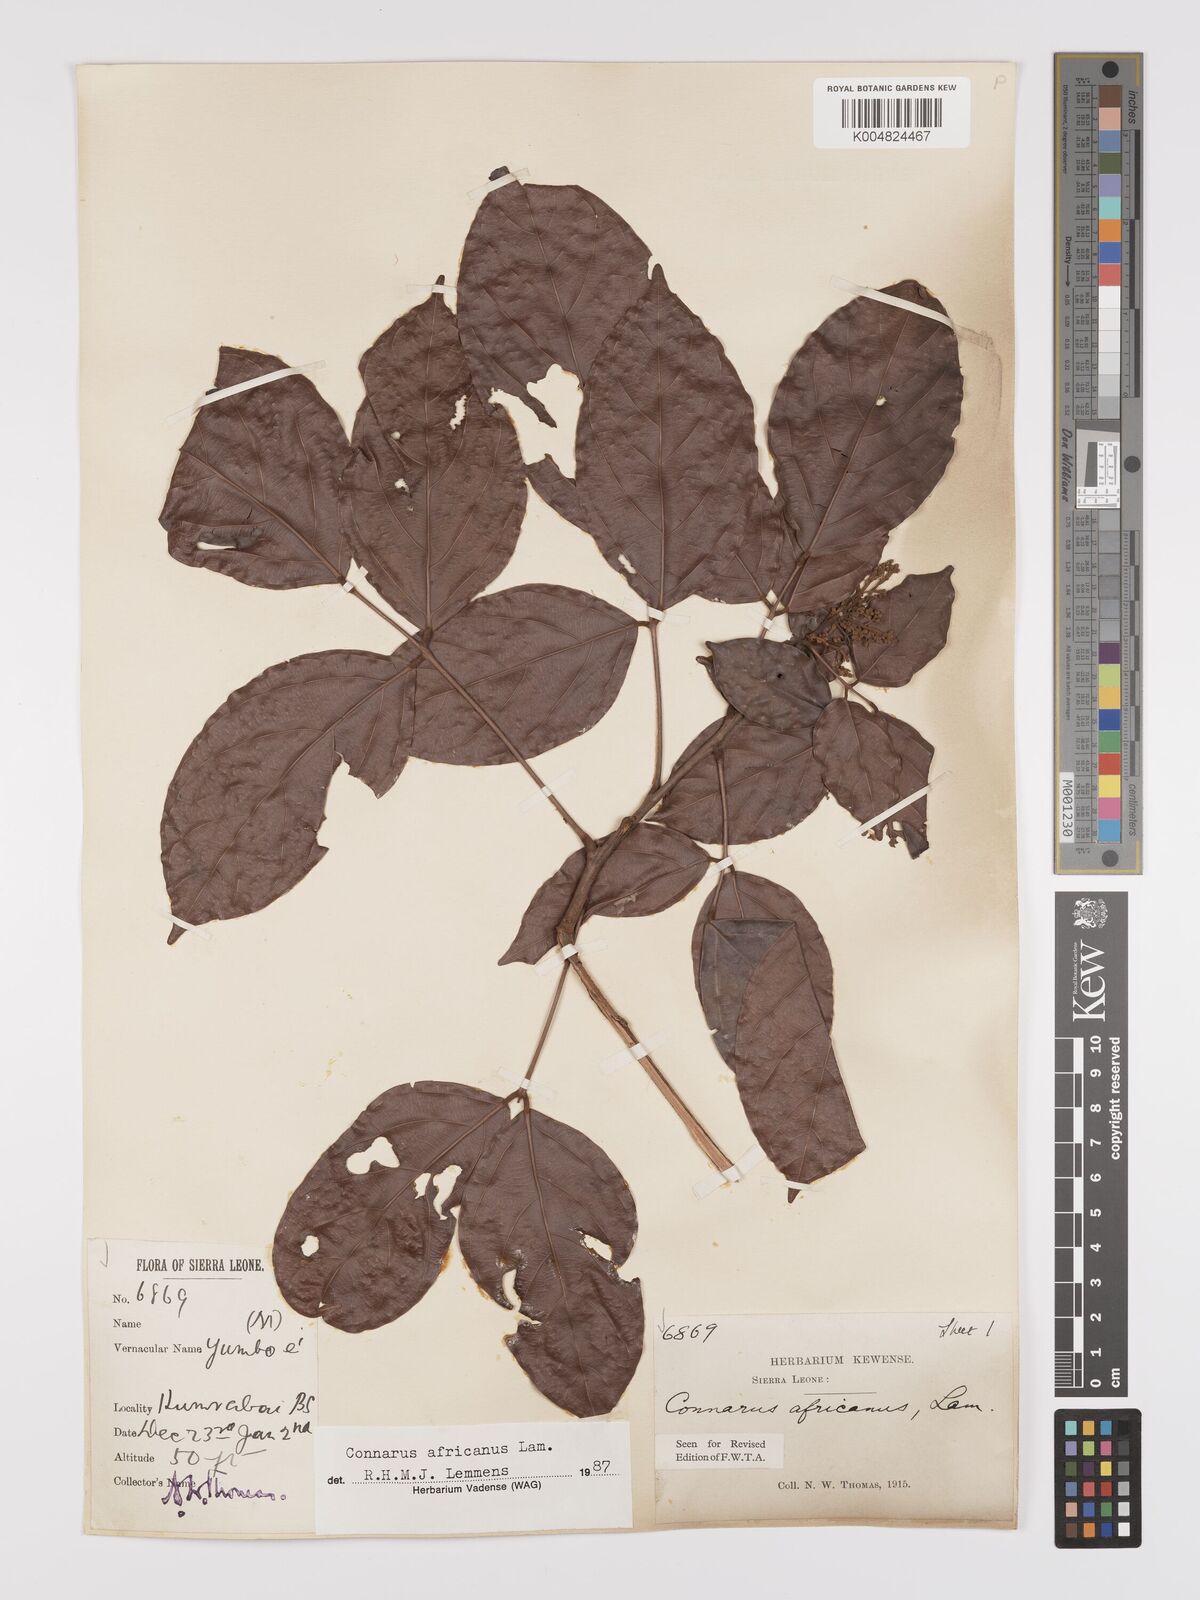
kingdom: Plantae
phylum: Tracheophyta
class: Magnoliopsida
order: Oxalidales
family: Connaraceae
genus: Connarus
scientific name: Connarus africanus
